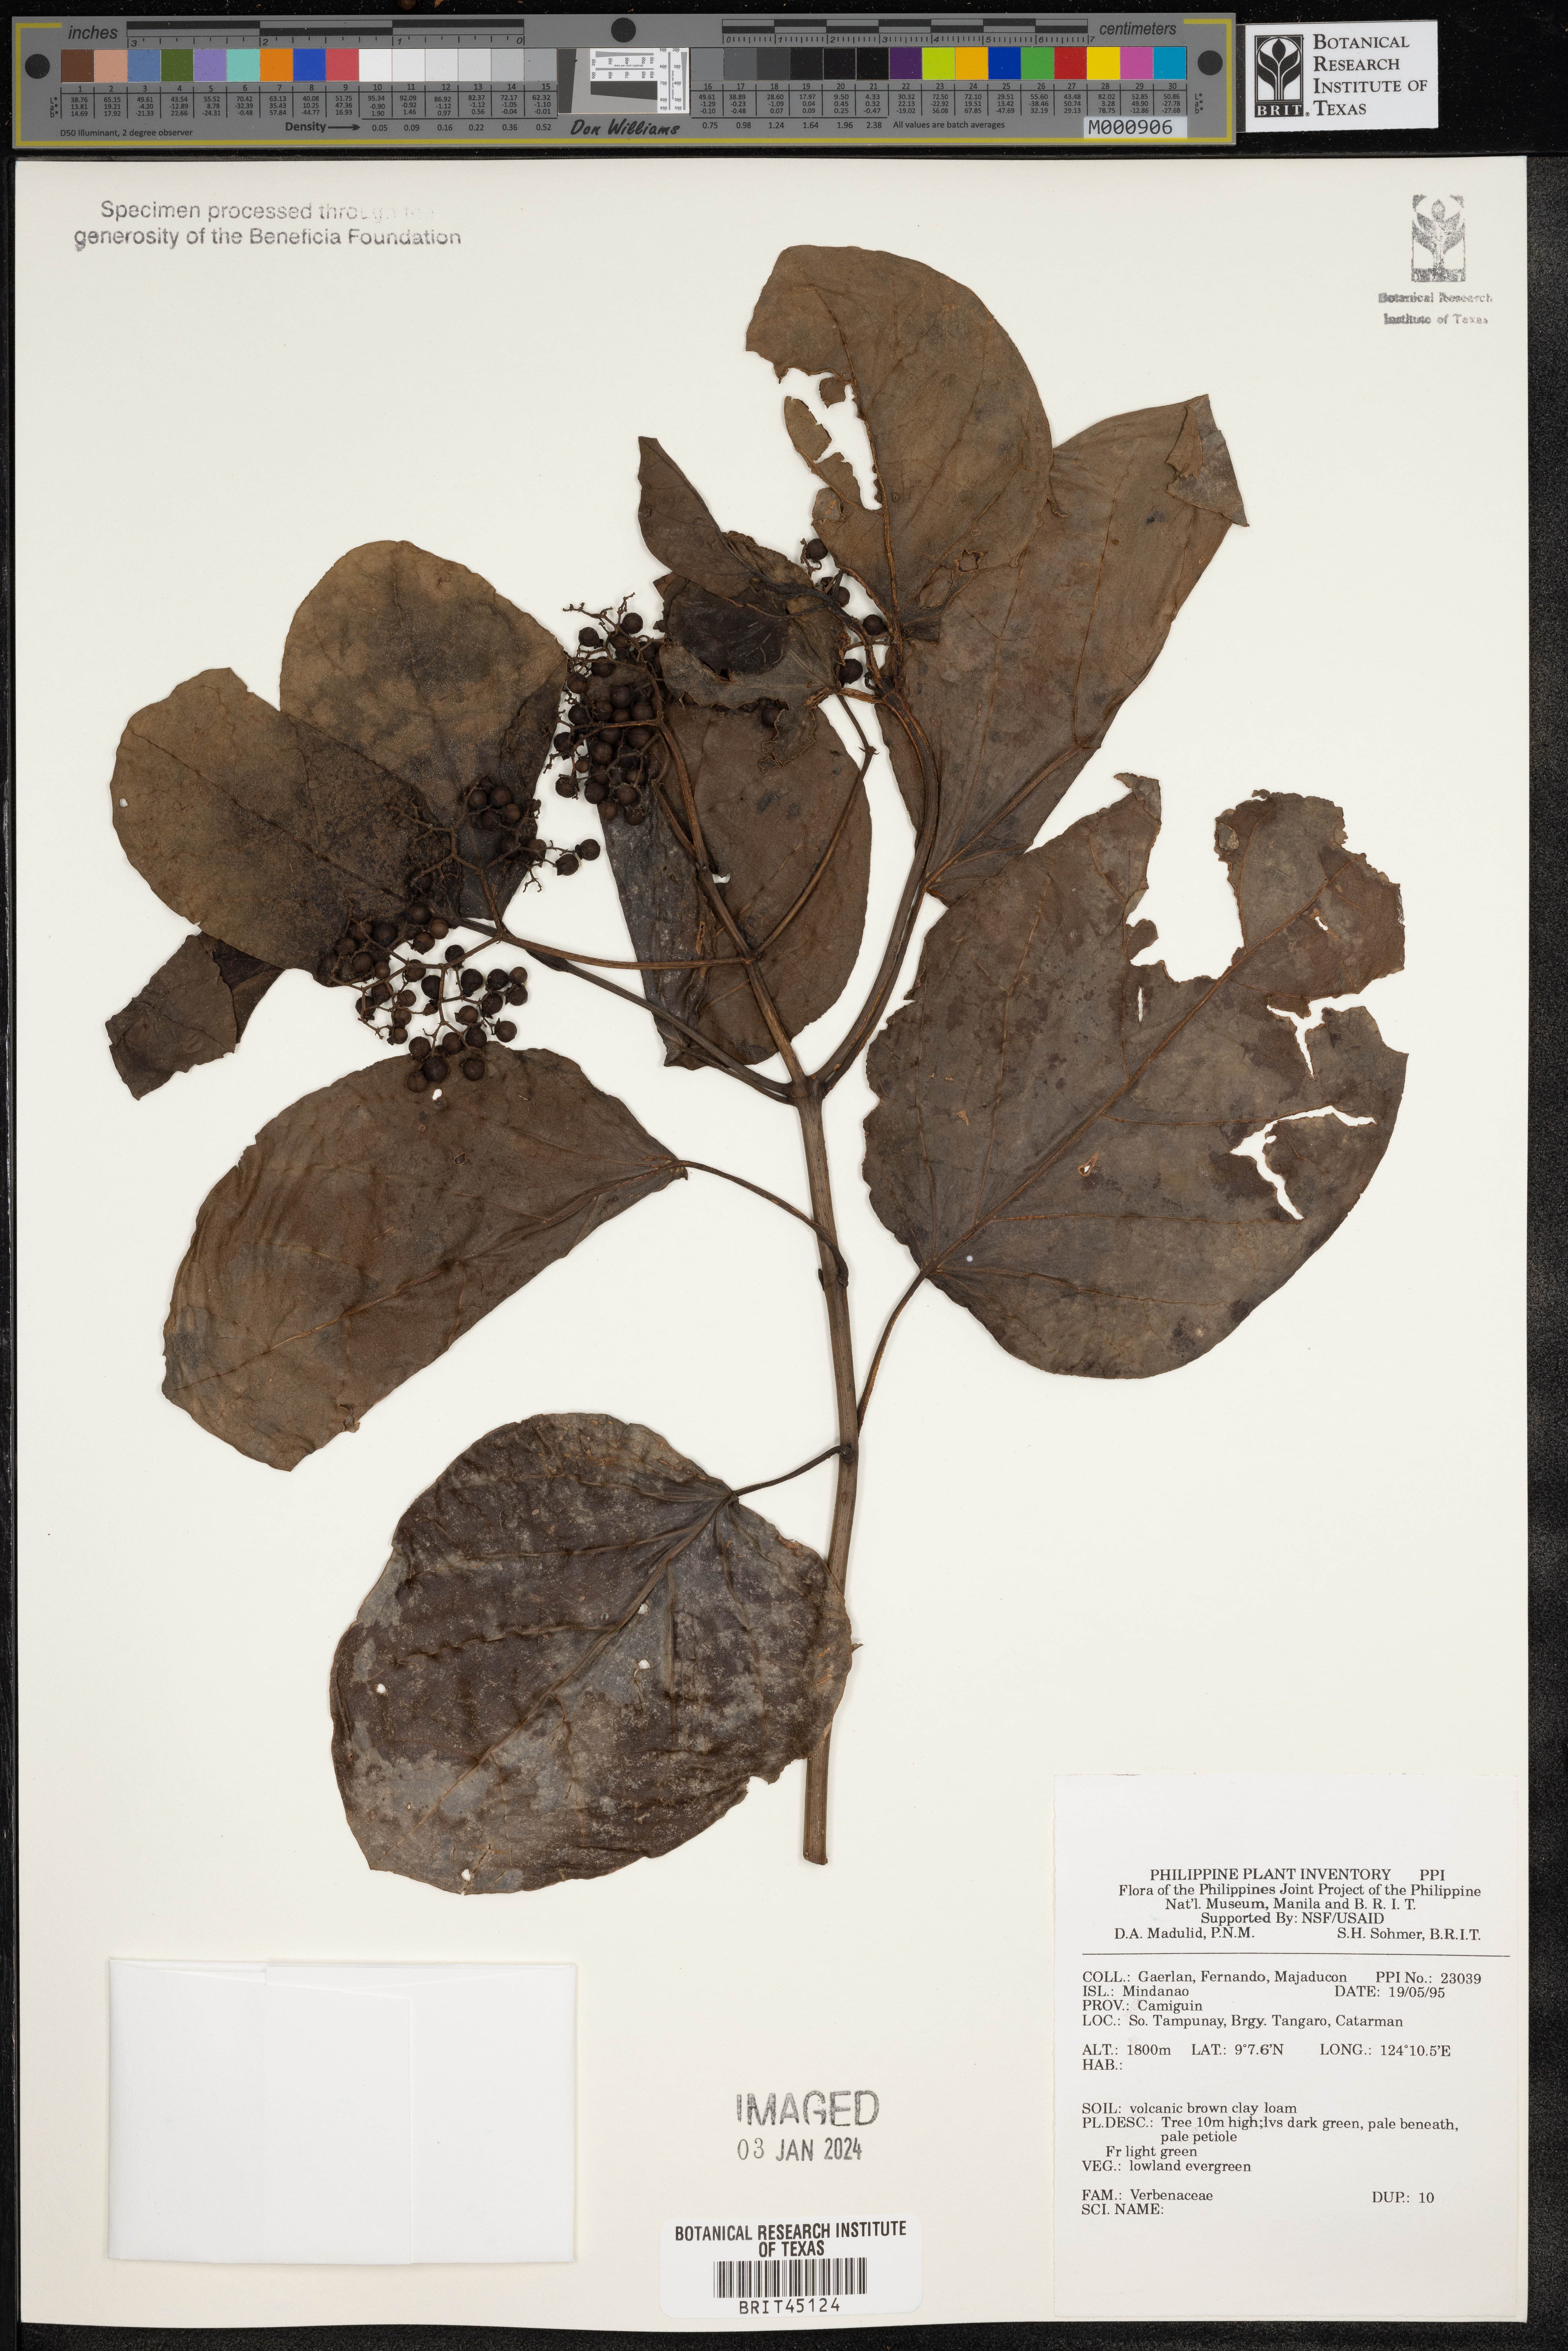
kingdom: Plantae
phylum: Tracheophyta
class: Magnoliopsida
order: Lamiales
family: Verbenaceae
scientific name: Verbenaceae
